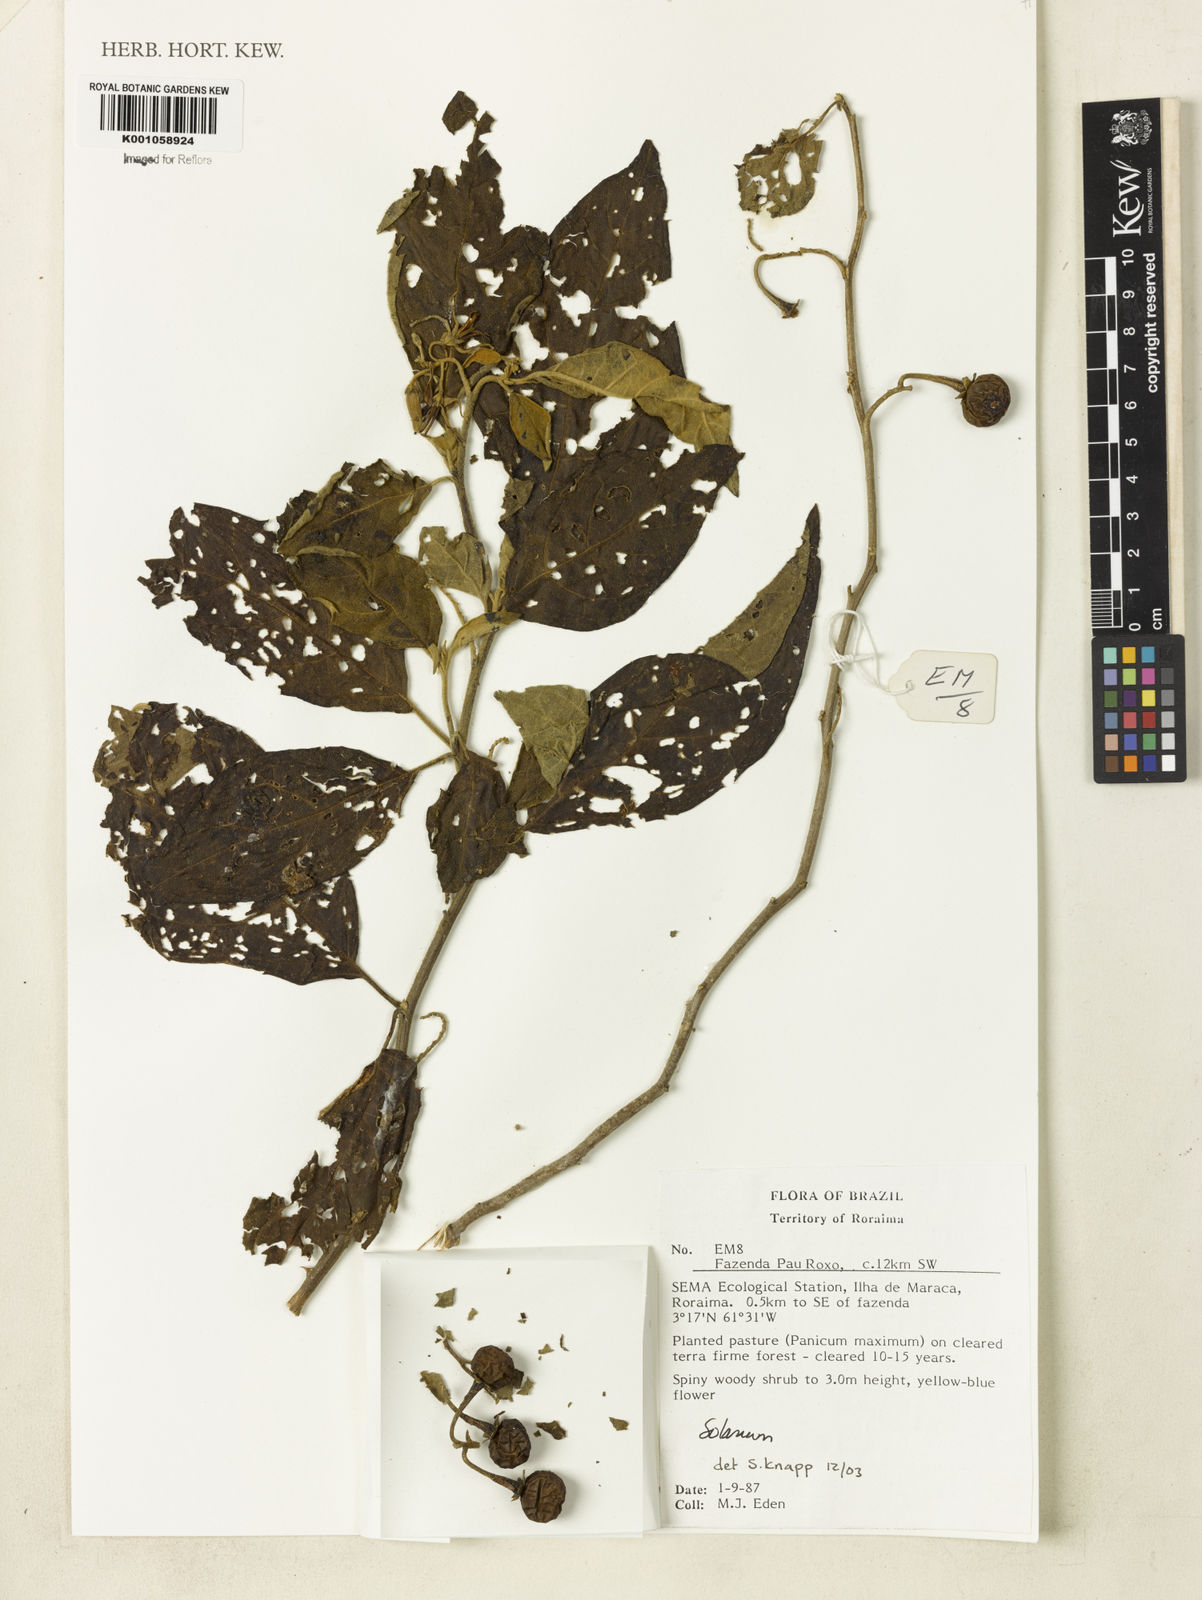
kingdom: Plantae
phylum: Tracheophyta
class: Magnoliopsida
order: Solanales
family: Solanaceae
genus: Solanum
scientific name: Solanum granulosoleprosum
